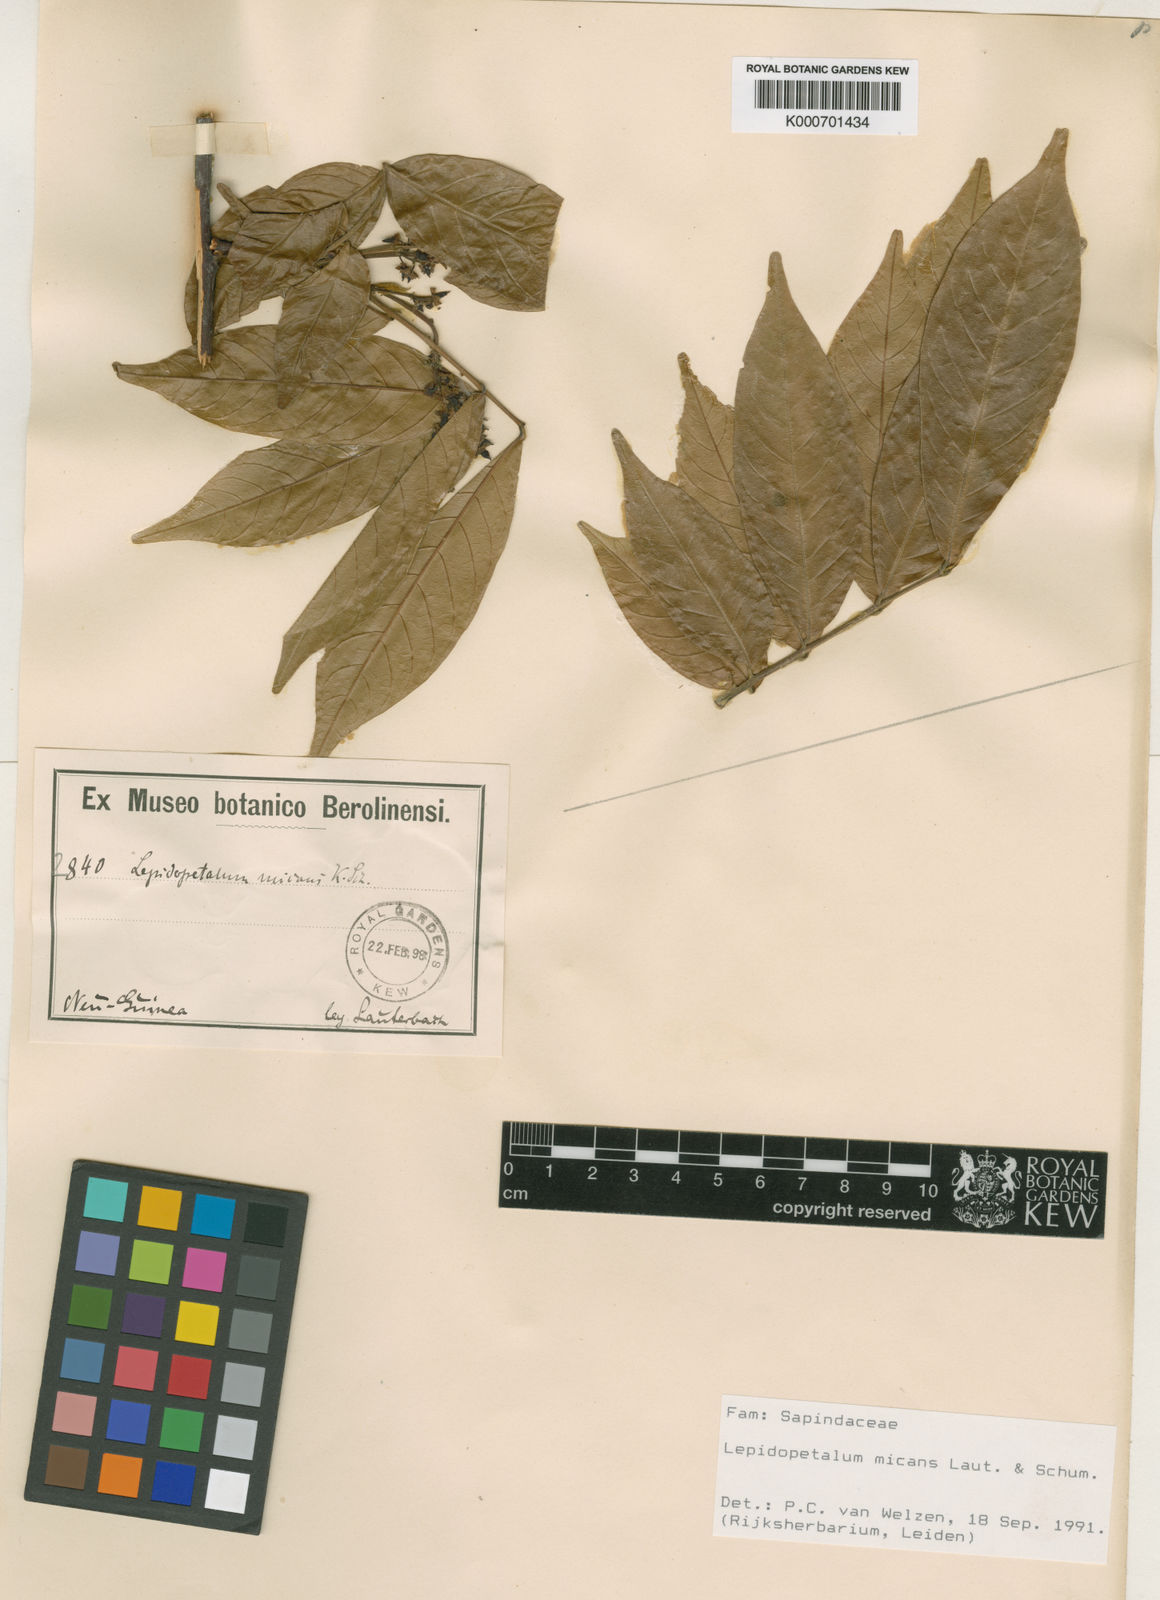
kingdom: Plantae
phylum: Tracheophyta
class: Magnoliopsida
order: Sapindales
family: Sapindaceae
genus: Lepidopetalum
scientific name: Lepidopetalum micans
